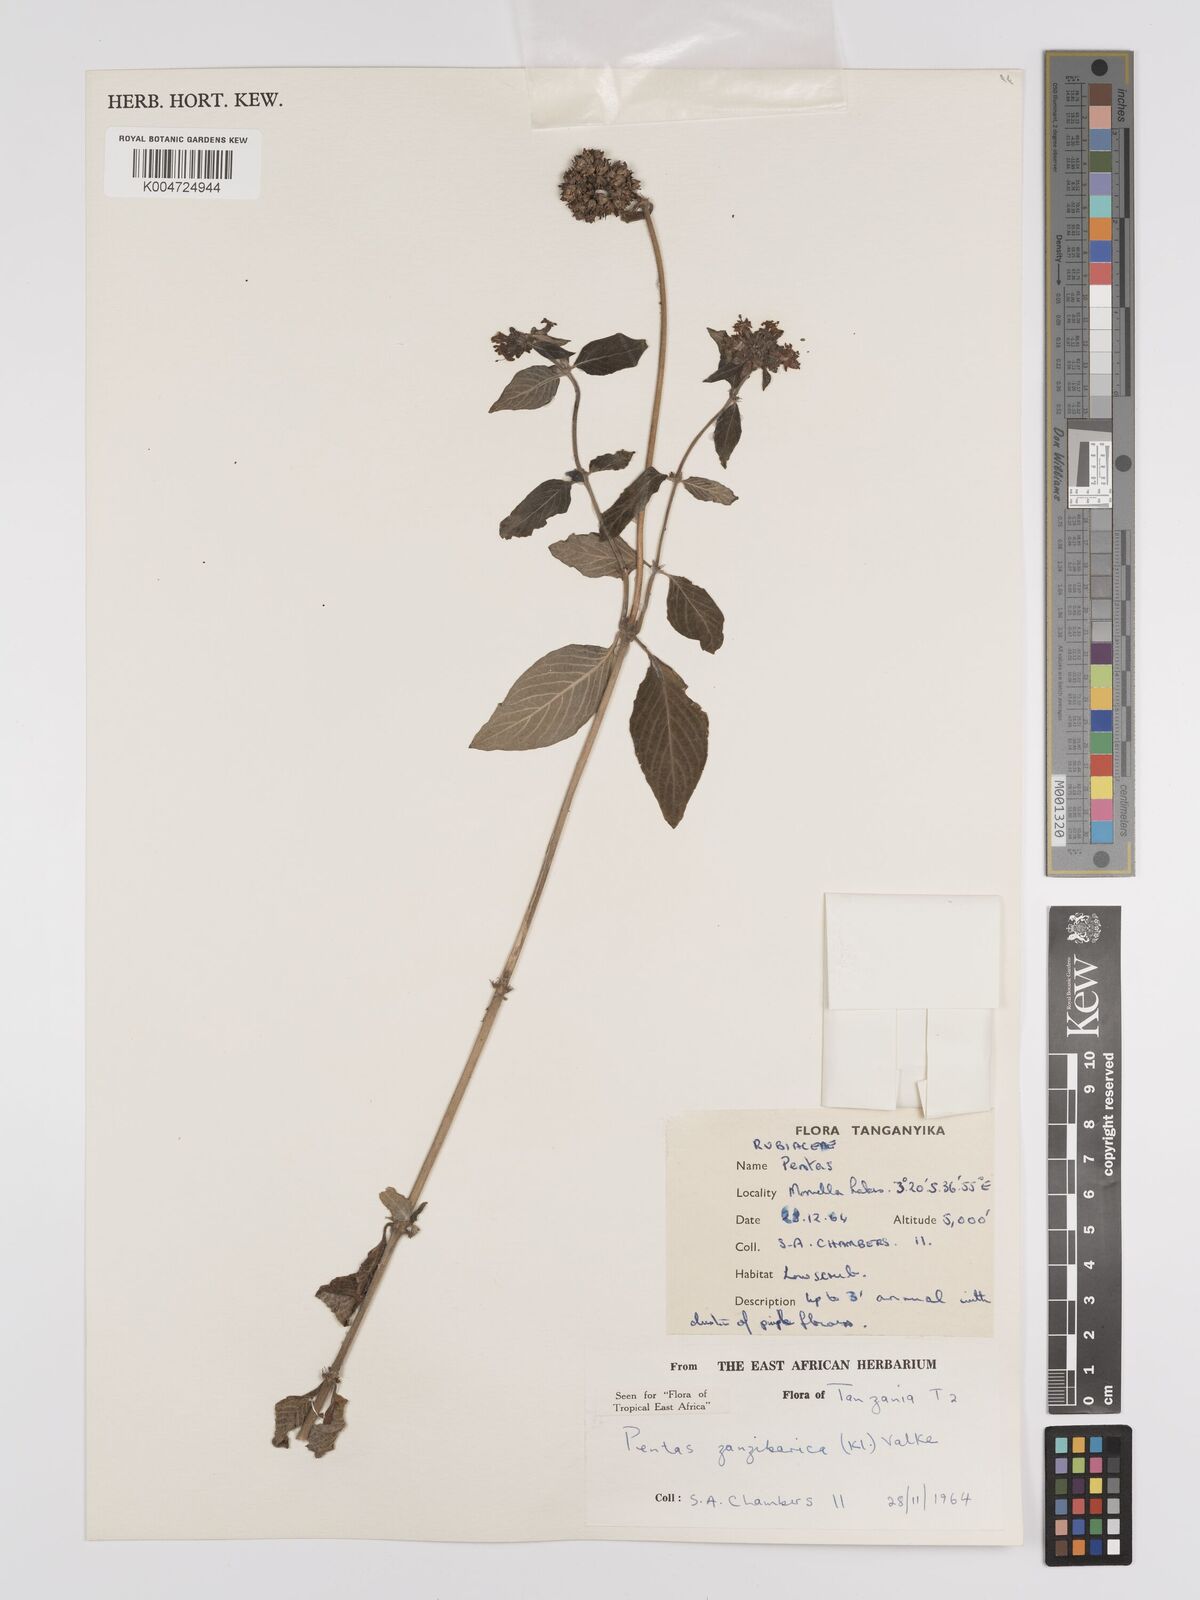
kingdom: Plantae
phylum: Tracheophyta
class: Magnoliopsida
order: Gentianales
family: Rubiaceae
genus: Pentas
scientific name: Pentas zanzibarica
